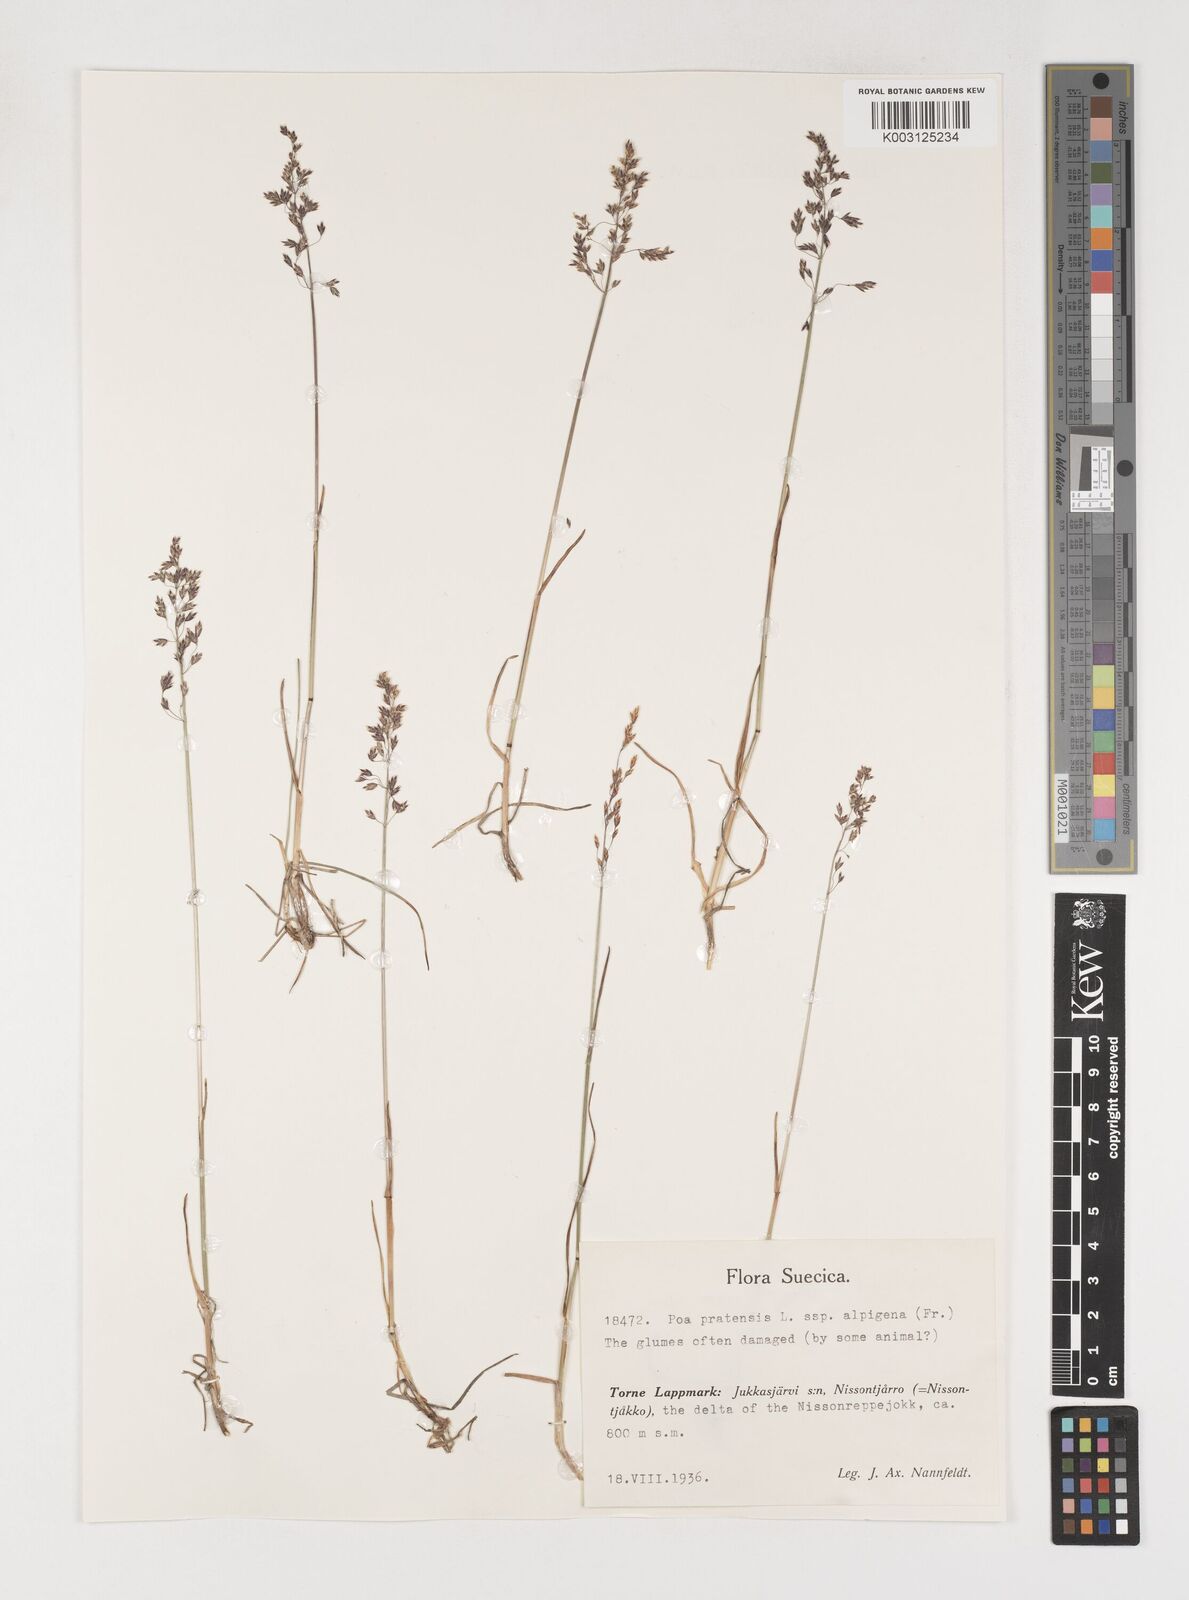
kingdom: Plantae
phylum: Tracheophyta
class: Liliopsida
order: Poales
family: Poaceae
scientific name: Poaceae
